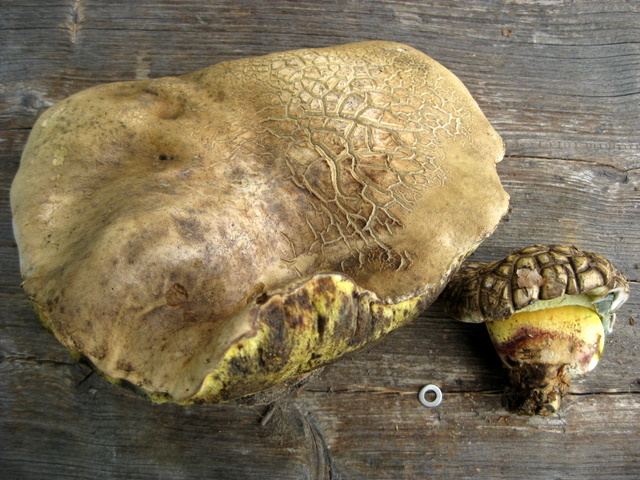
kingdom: Fungi
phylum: Basidiomycota
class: Agaricomycetes
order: Boletales
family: Boletaceae
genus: Caloboletus
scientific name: Caloboletus radicans
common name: rod-rørhat
